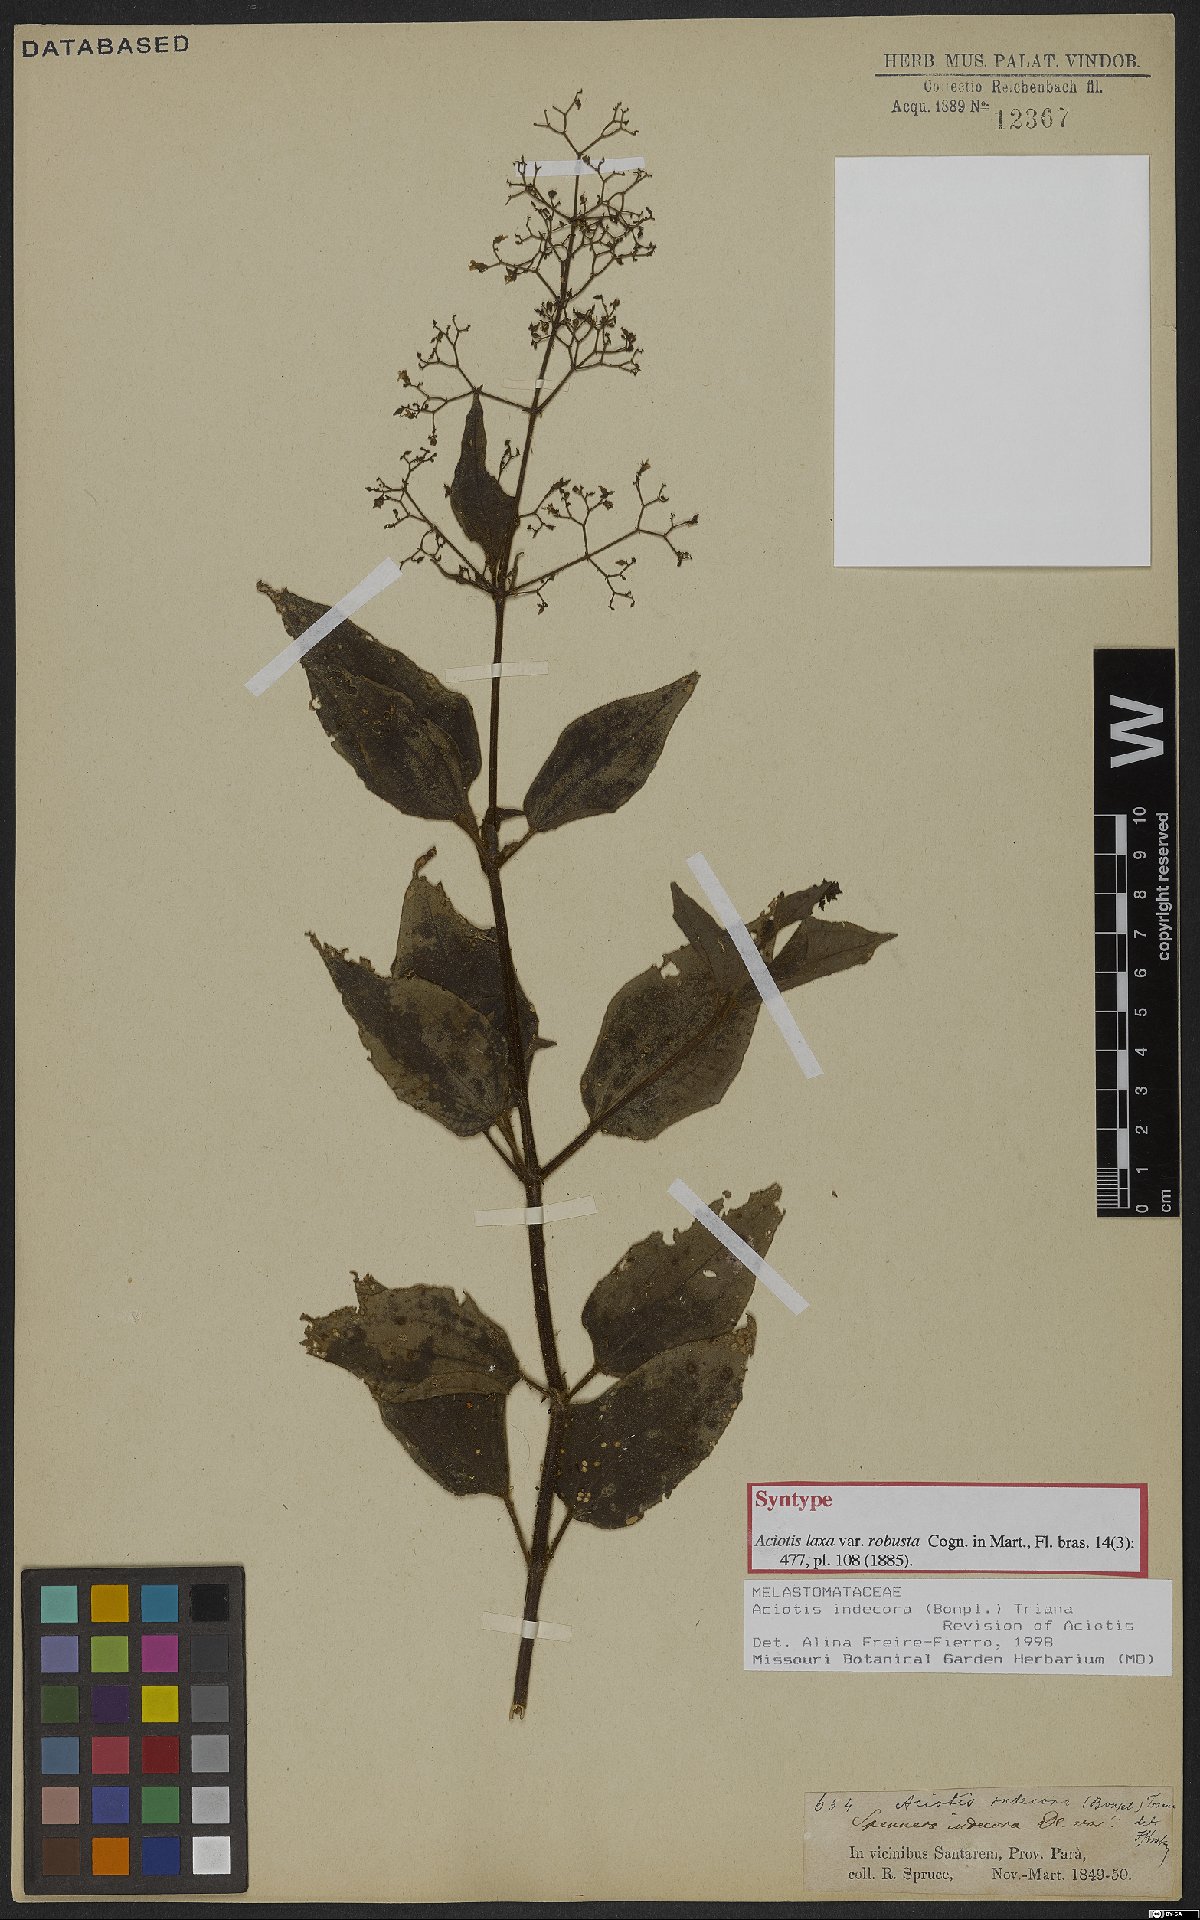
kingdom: Plantae
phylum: Tracheophyta
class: Magnoliopsida
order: Myrtales
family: Melastomataceae
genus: Aciotis
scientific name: Aciotis indecora
